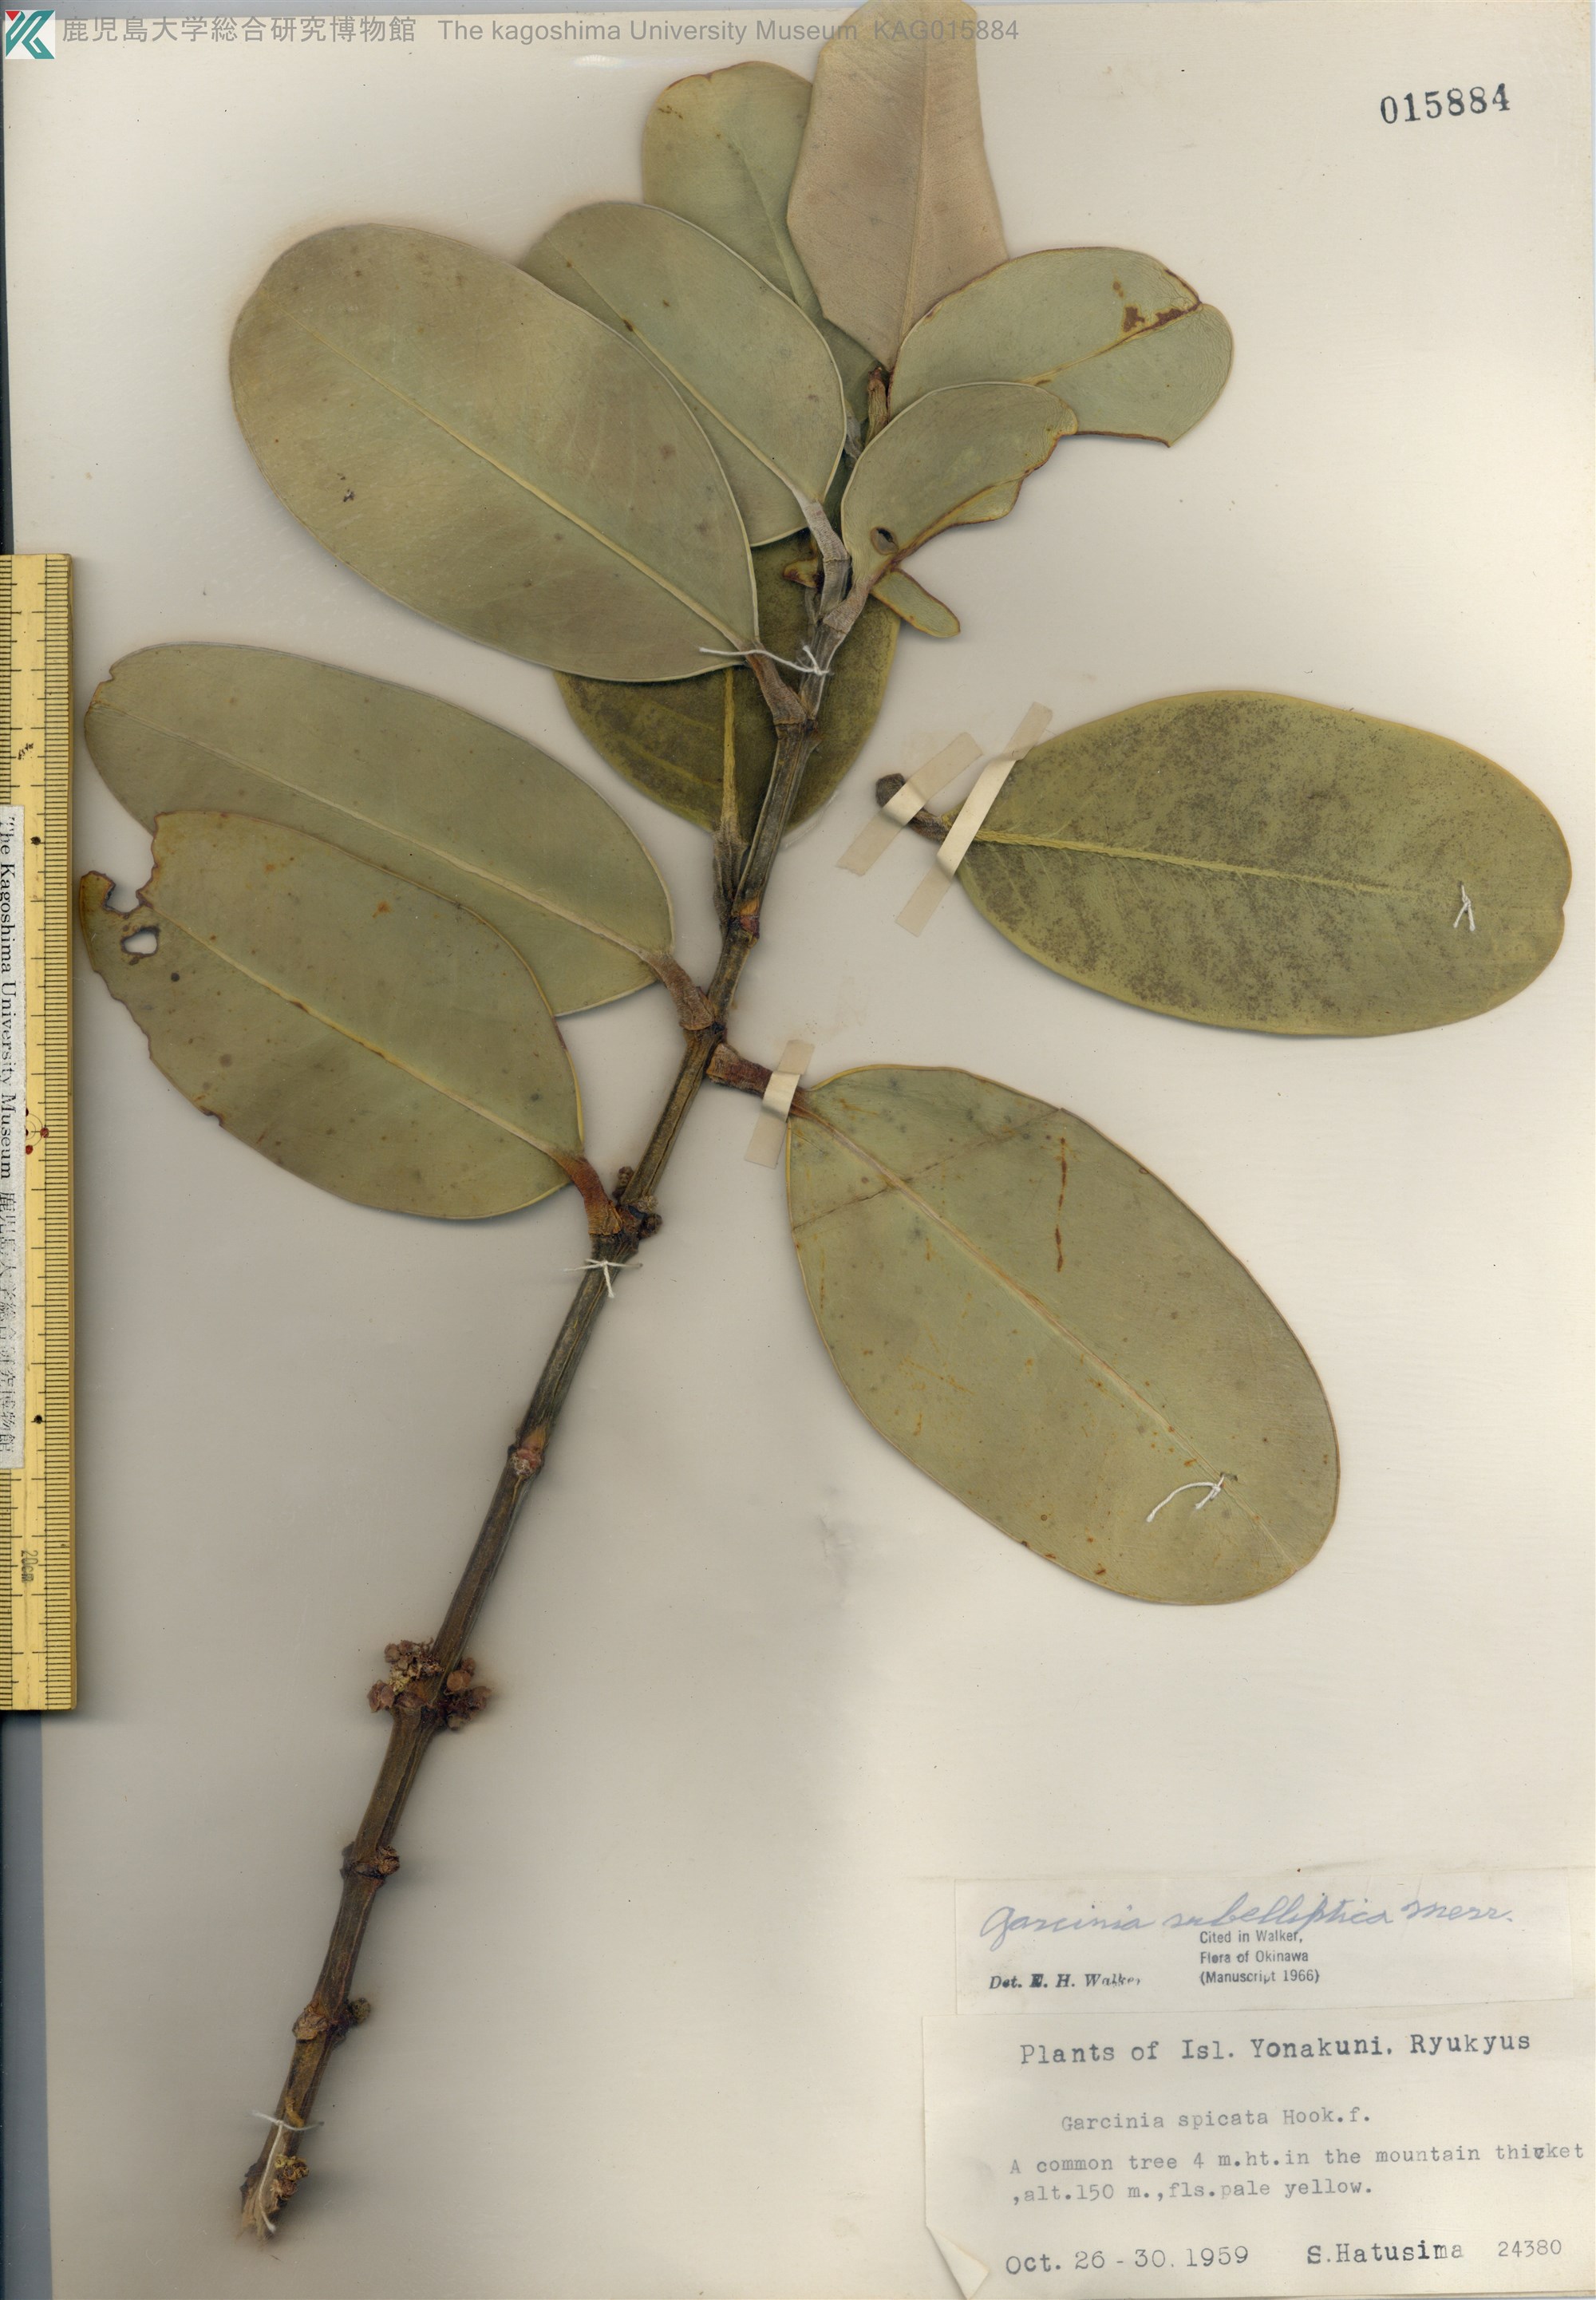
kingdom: Plantae
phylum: Tracheophyta
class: Magnoliopsida
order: Malpighiales
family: Clusiaceae
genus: Garcinia
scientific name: Garcinia subelliptica
